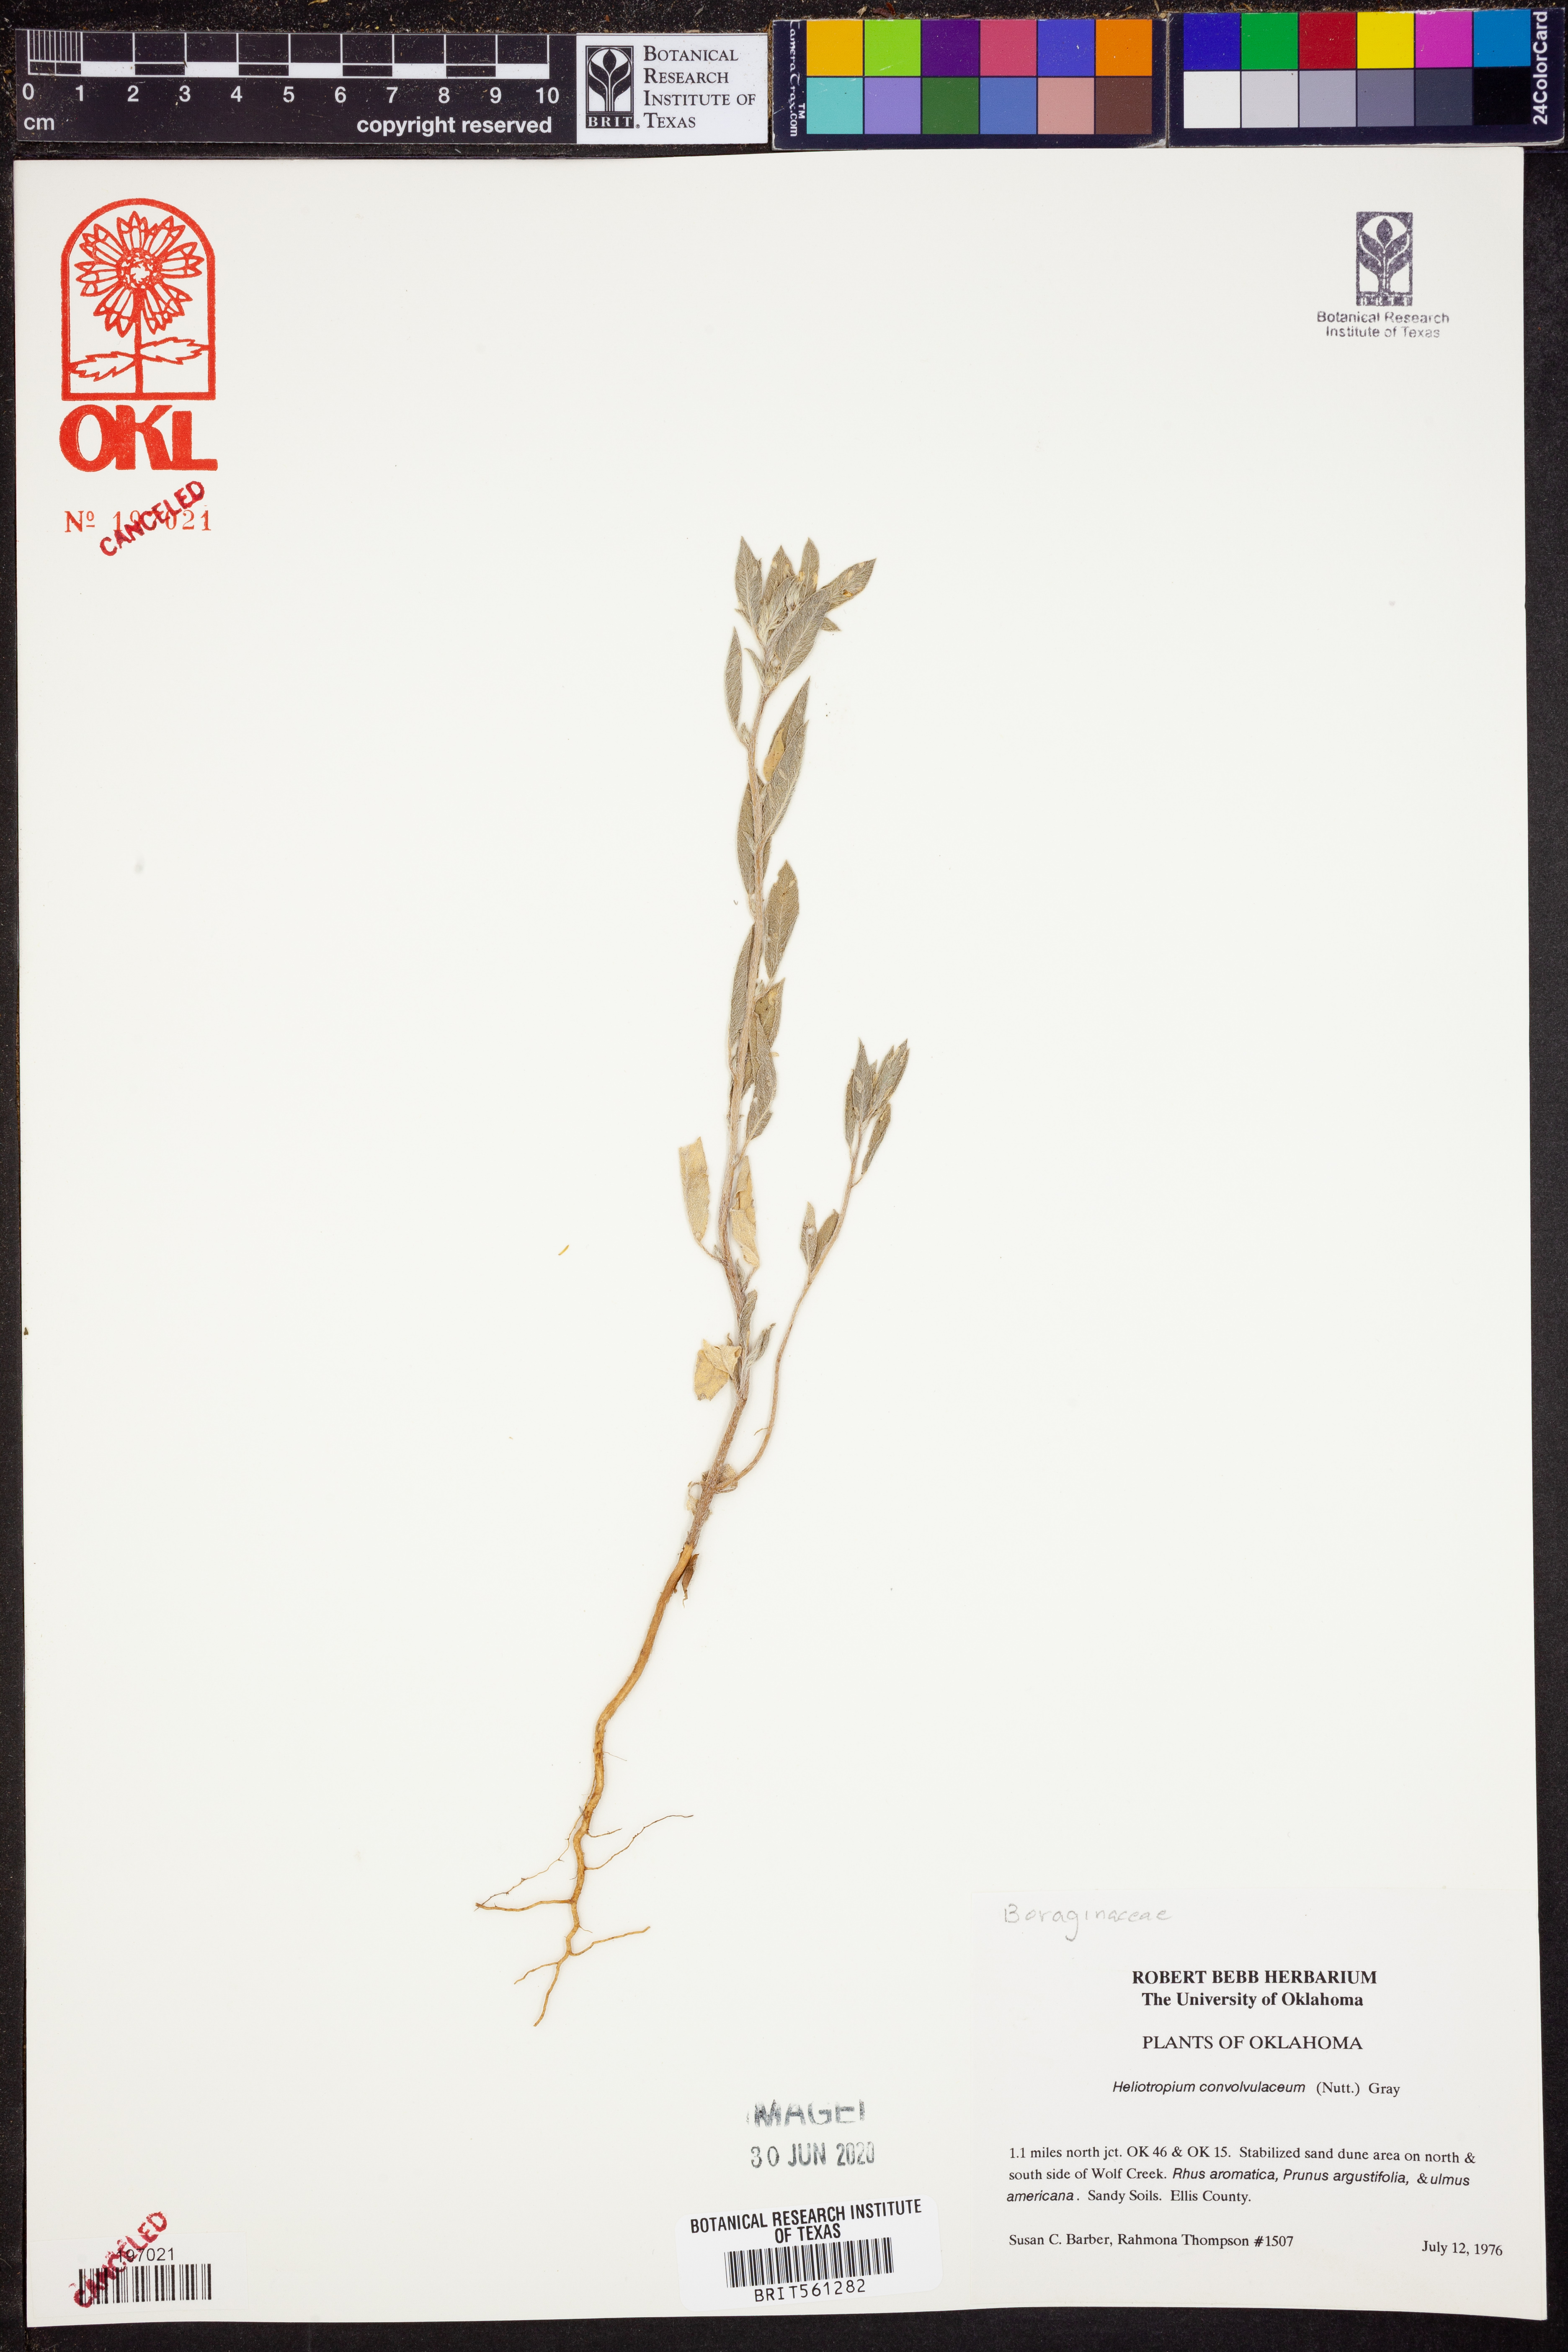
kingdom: Plantae
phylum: Tracheophyta
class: Magnoliopsida
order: Boraginales
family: Heliotropiaceae
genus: Euploca
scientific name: Euploca convolvulacea
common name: Bindweed heliotrope
